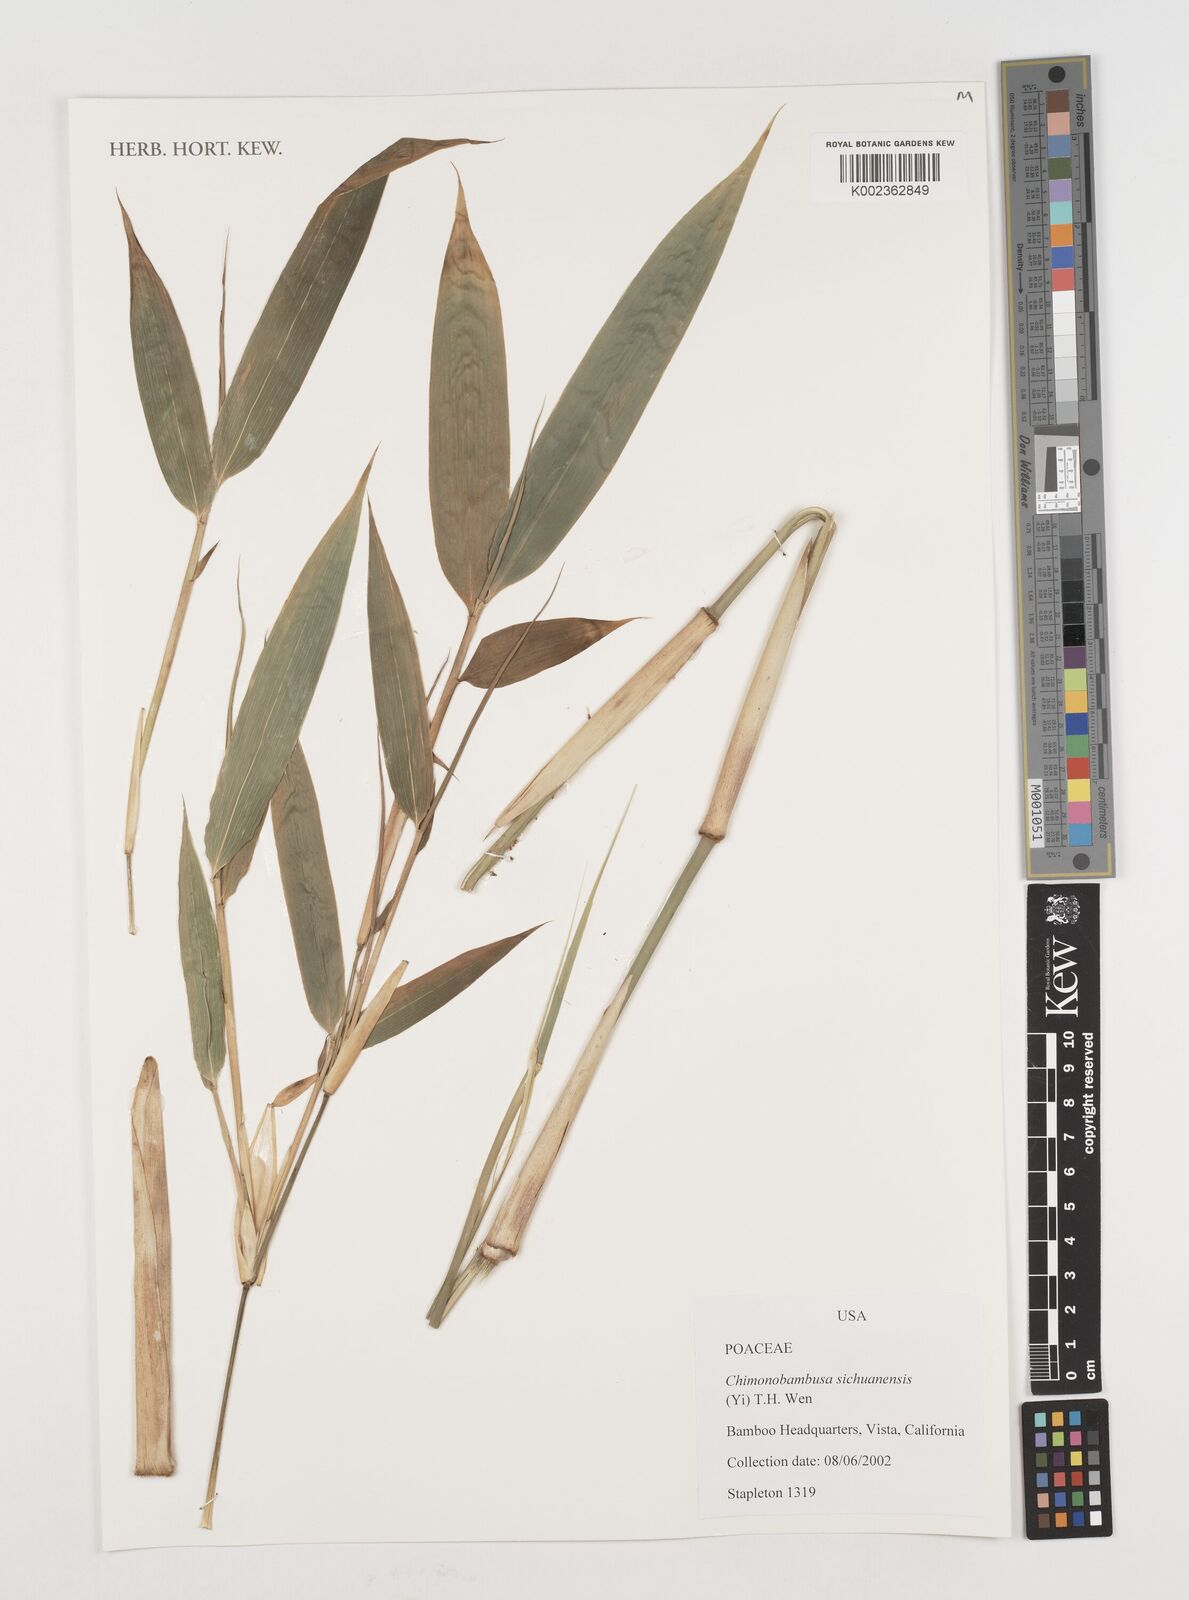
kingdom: Plantae
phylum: Tracheophyta
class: Liliopsida
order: Poales
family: Poaceae
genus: Chimonobambusa
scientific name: Chimonobambusa sichuanensis
